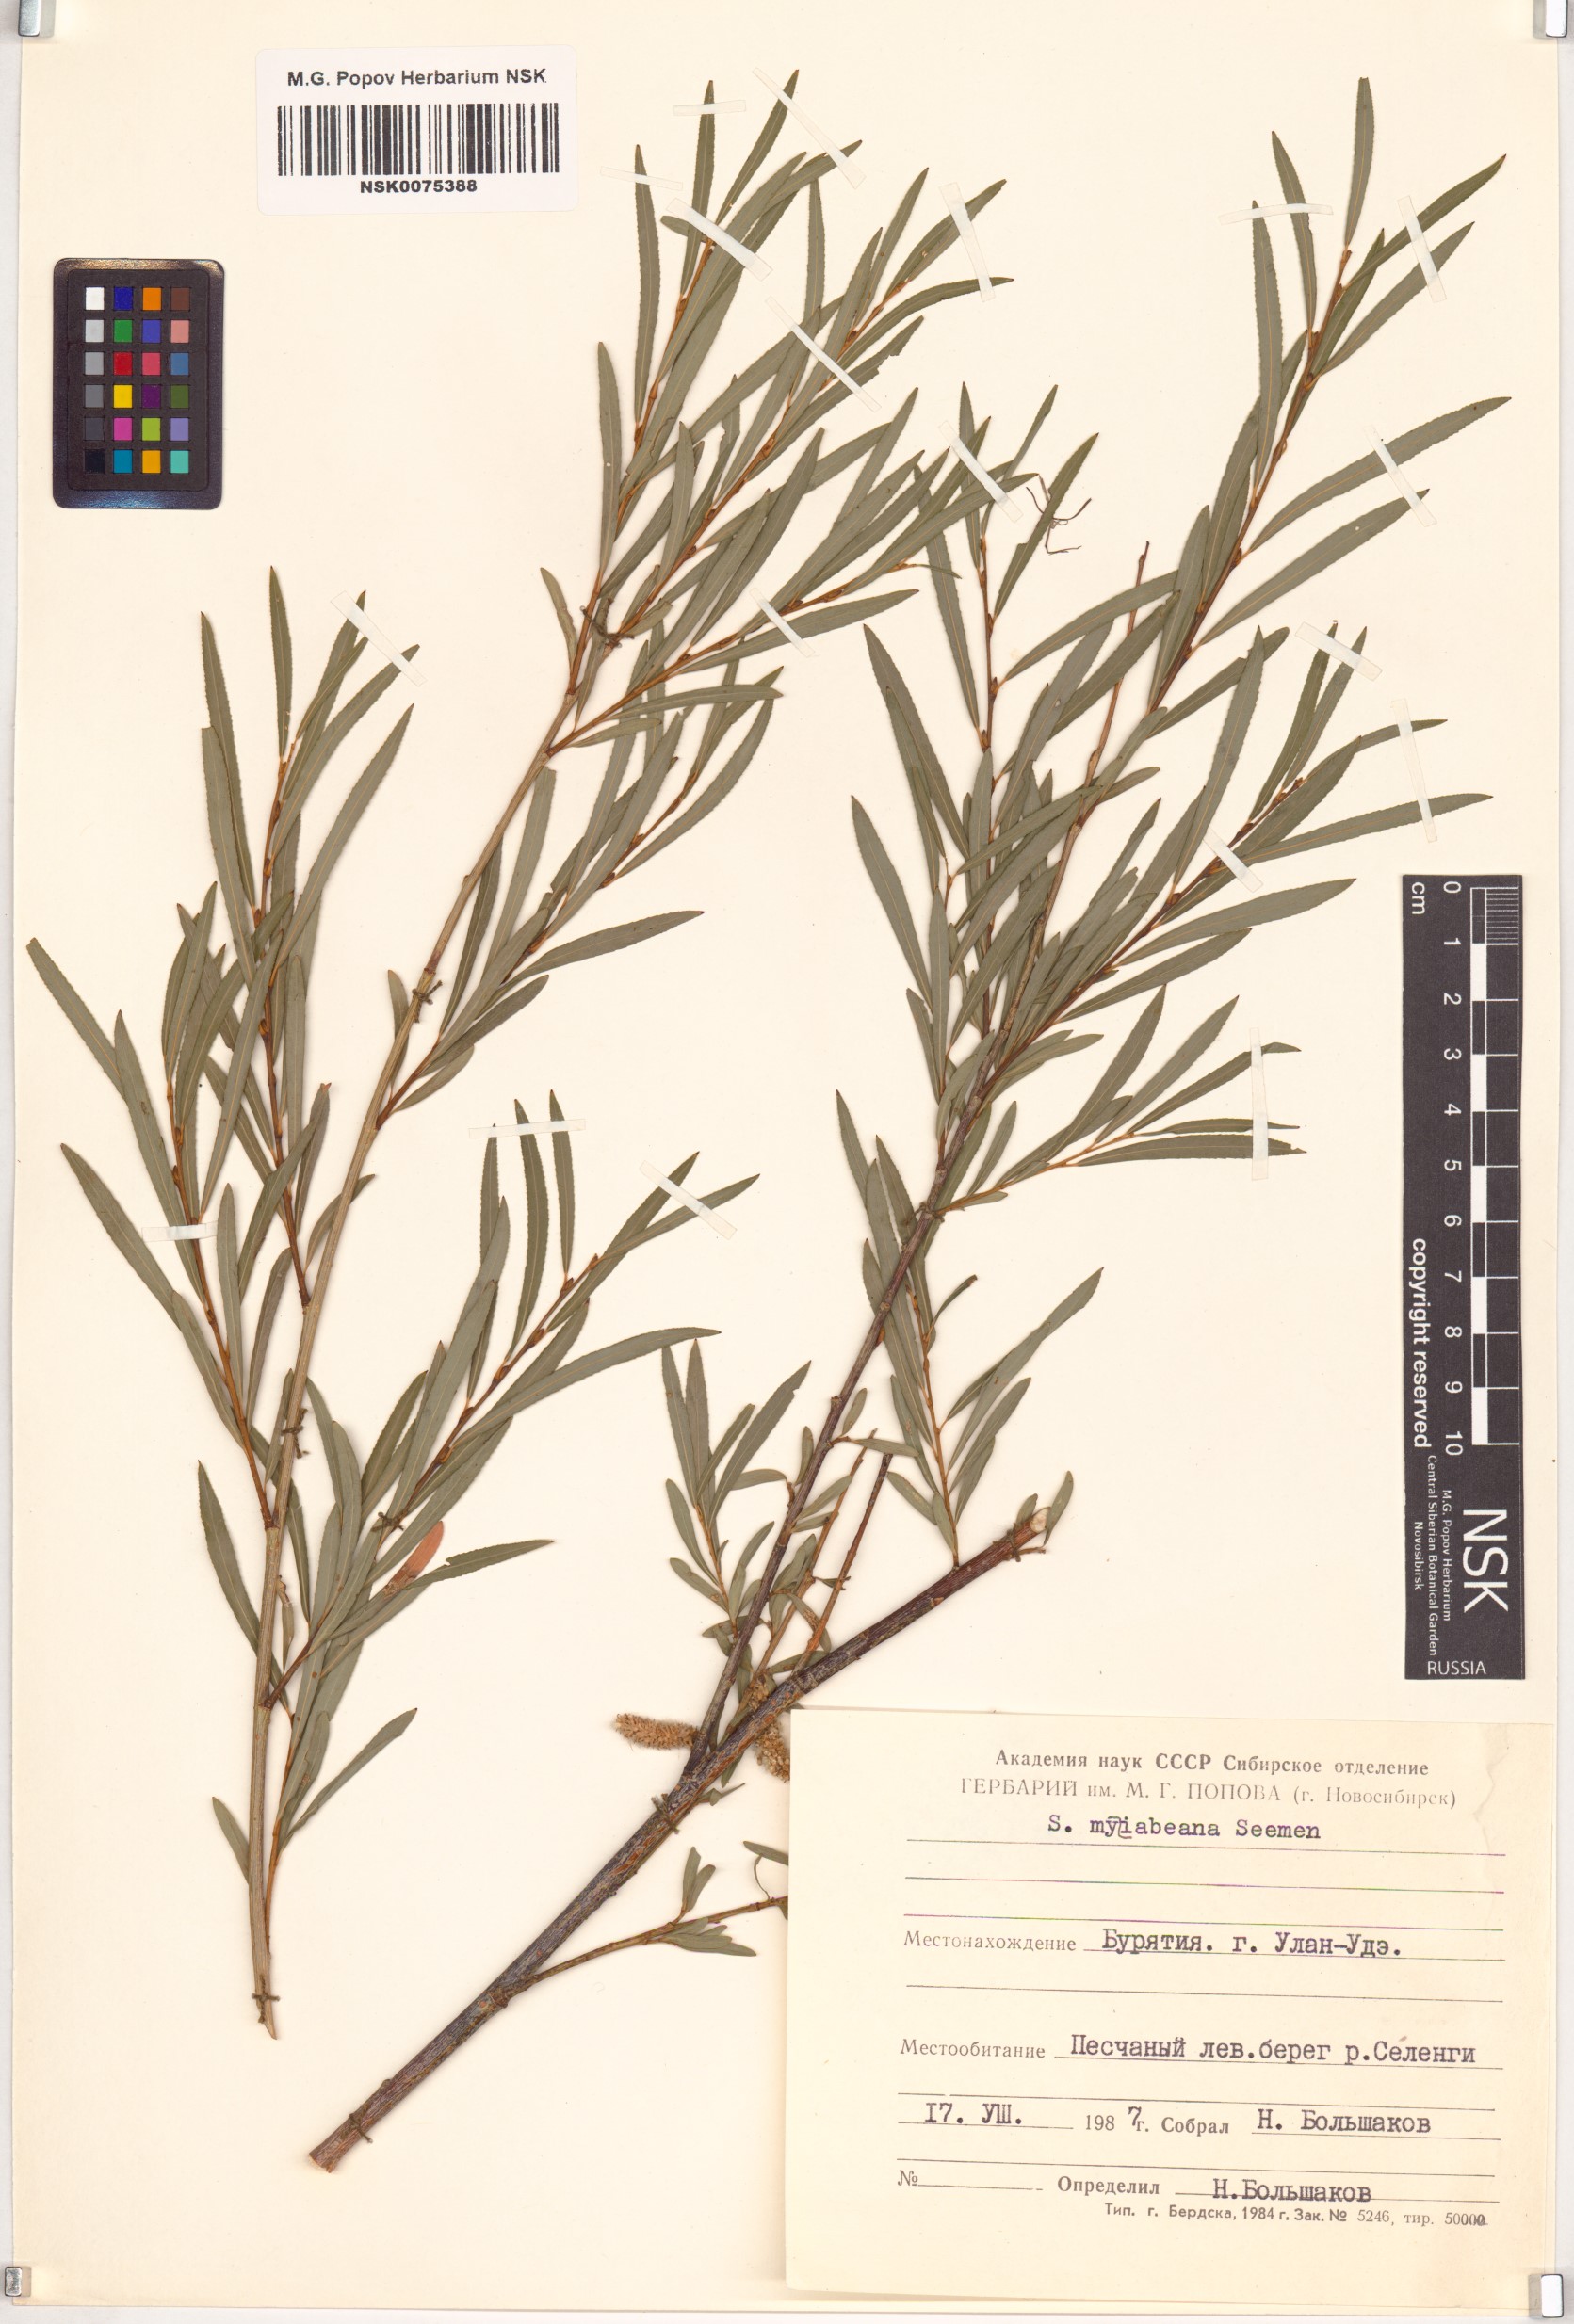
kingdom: Plantae
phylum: Tracheophyta
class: Magnoliopsida
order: Malpighiales
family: Salicaceae
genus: Salix
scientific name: Salix miyabeana
